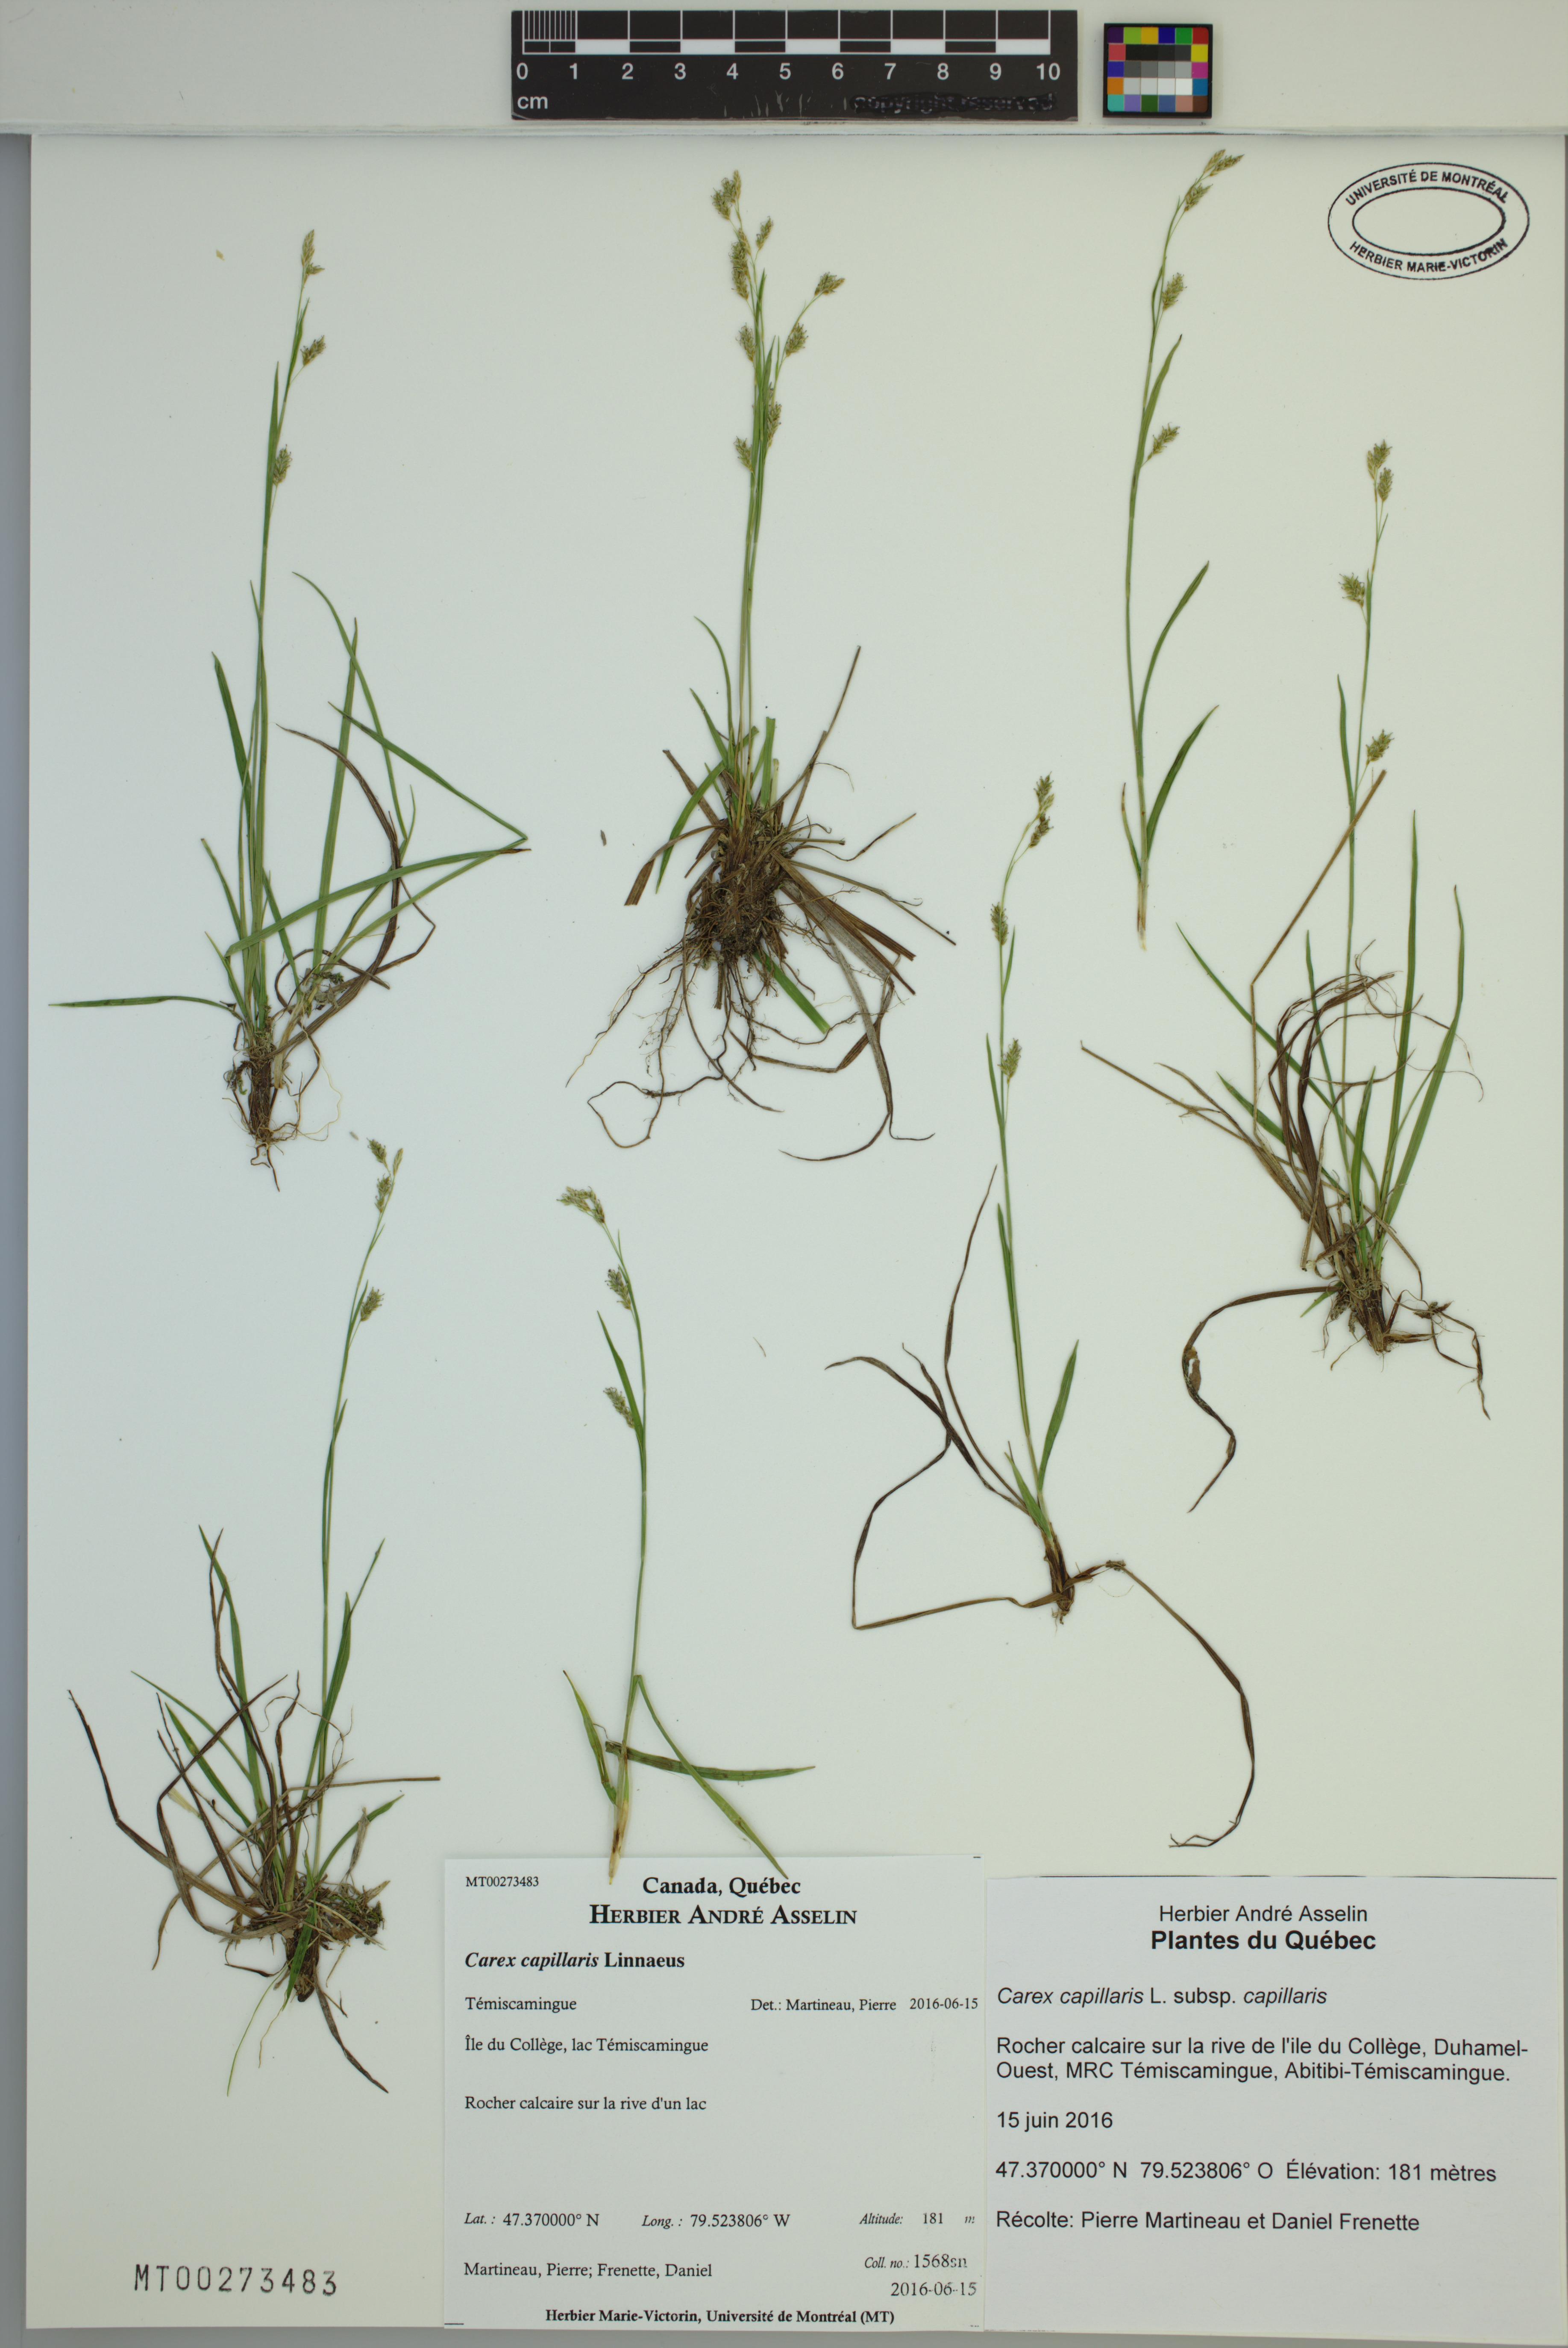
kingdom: Plantae
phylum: Tracheophyta
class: Liliopsida
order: Poales
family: Cyperaceae
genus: Carex
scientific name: Carex capillaris
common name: Hair sedge
